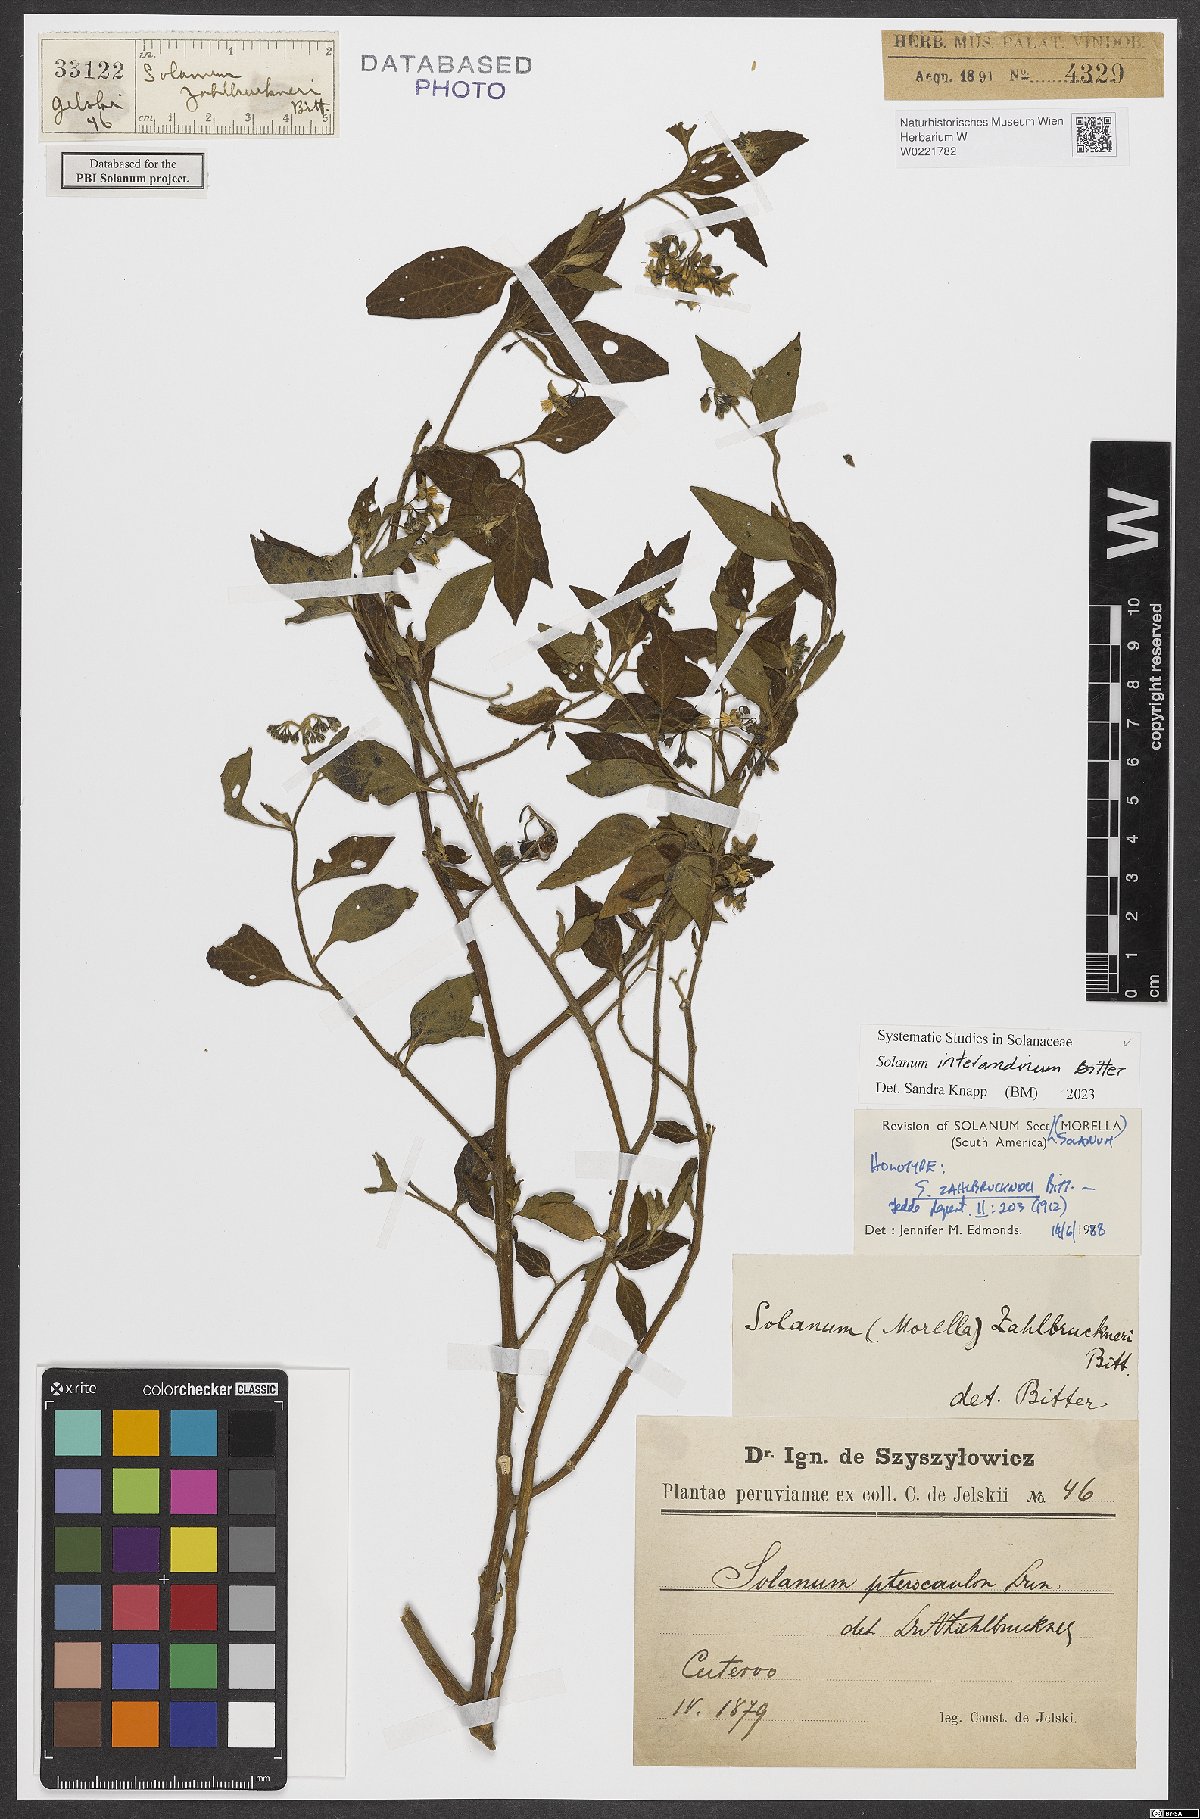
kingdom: Plantae
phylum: Tracheophyta
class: Magnoliopsida
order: Solanales
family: Solanaceae
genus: Solanum
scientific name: Solanum aloysiifolium
